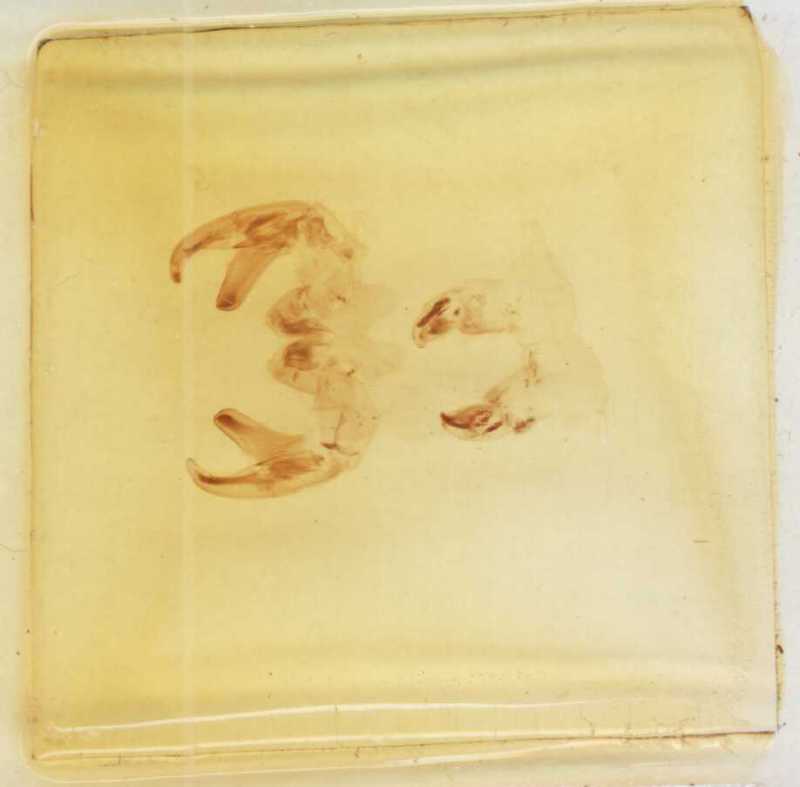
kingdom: Animalia
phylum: Arthropoda
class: Diplopoda
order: Sphaerotheriida
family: Zephroniidae
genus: Sphaeropoeus
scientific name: Sphaeropoeus malaccanus
